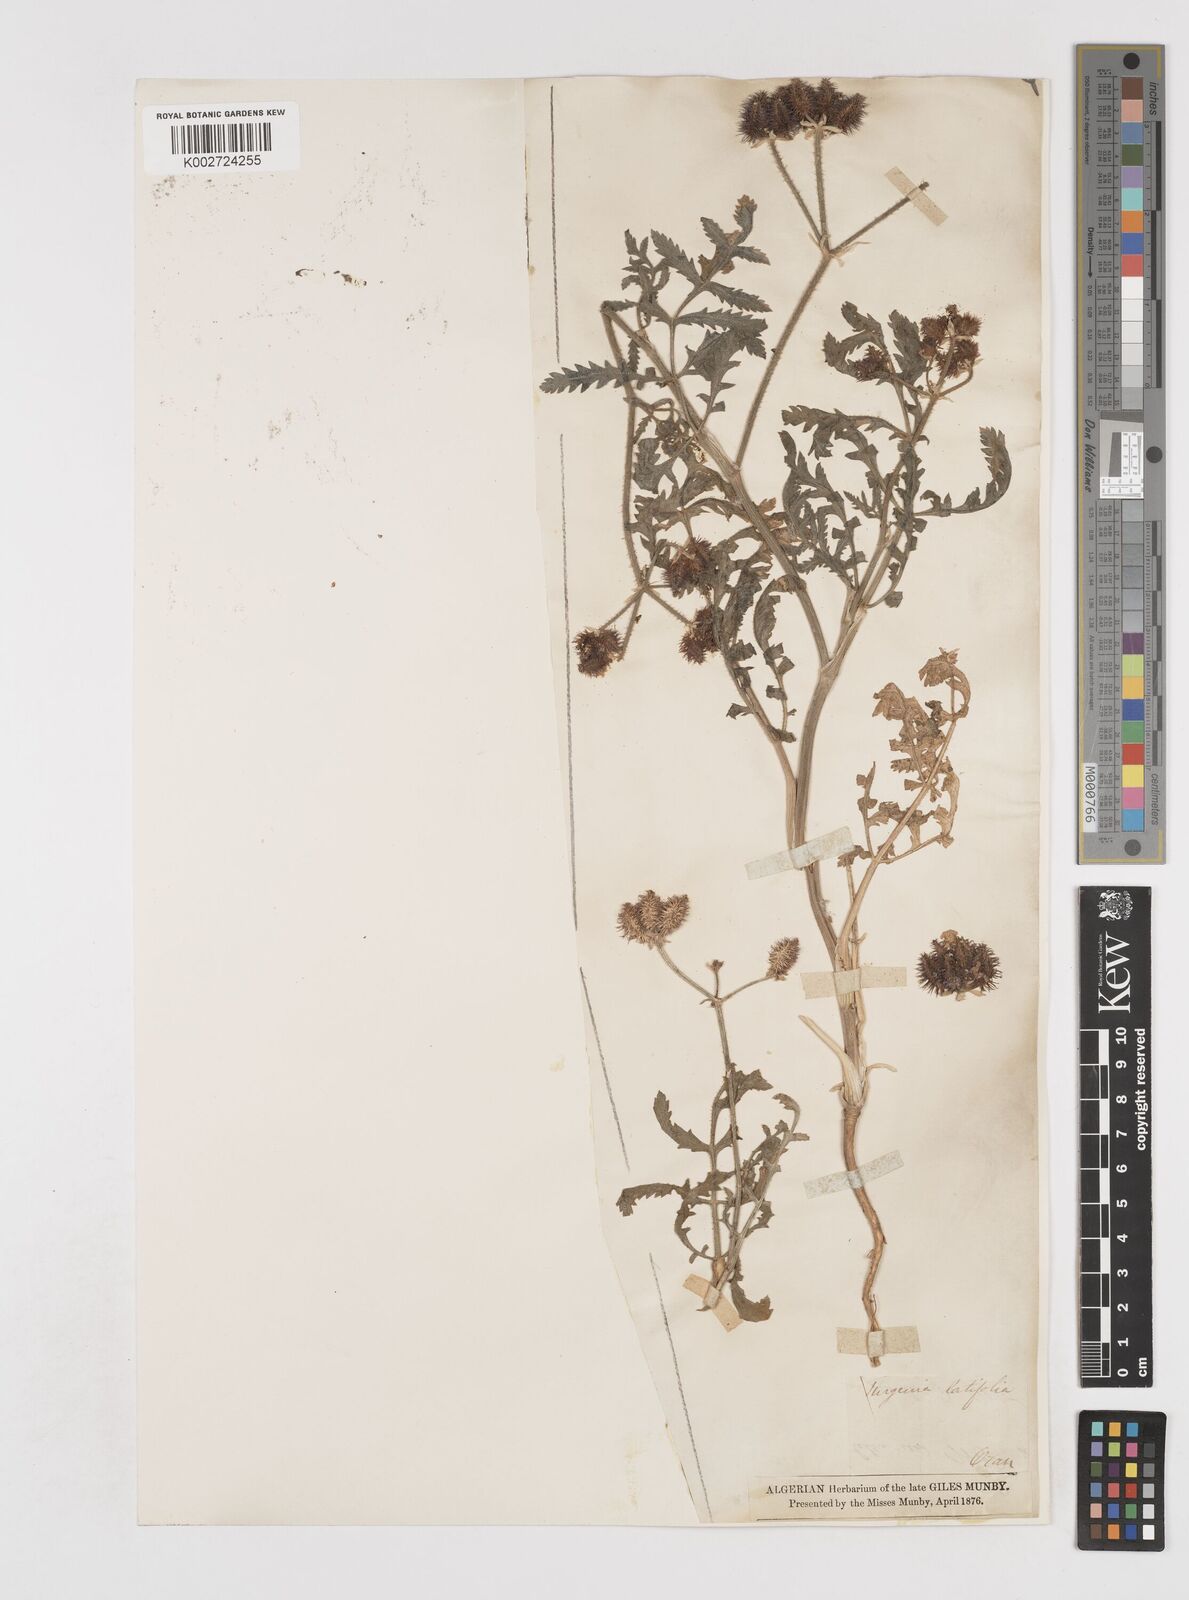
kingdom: Plantae
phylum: Tracheophyta
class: Magnoliopsida
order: Apiales
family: Apiaceae
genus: Turgenia
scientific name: Turgenia latifolia
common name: Greater bur-parsley
